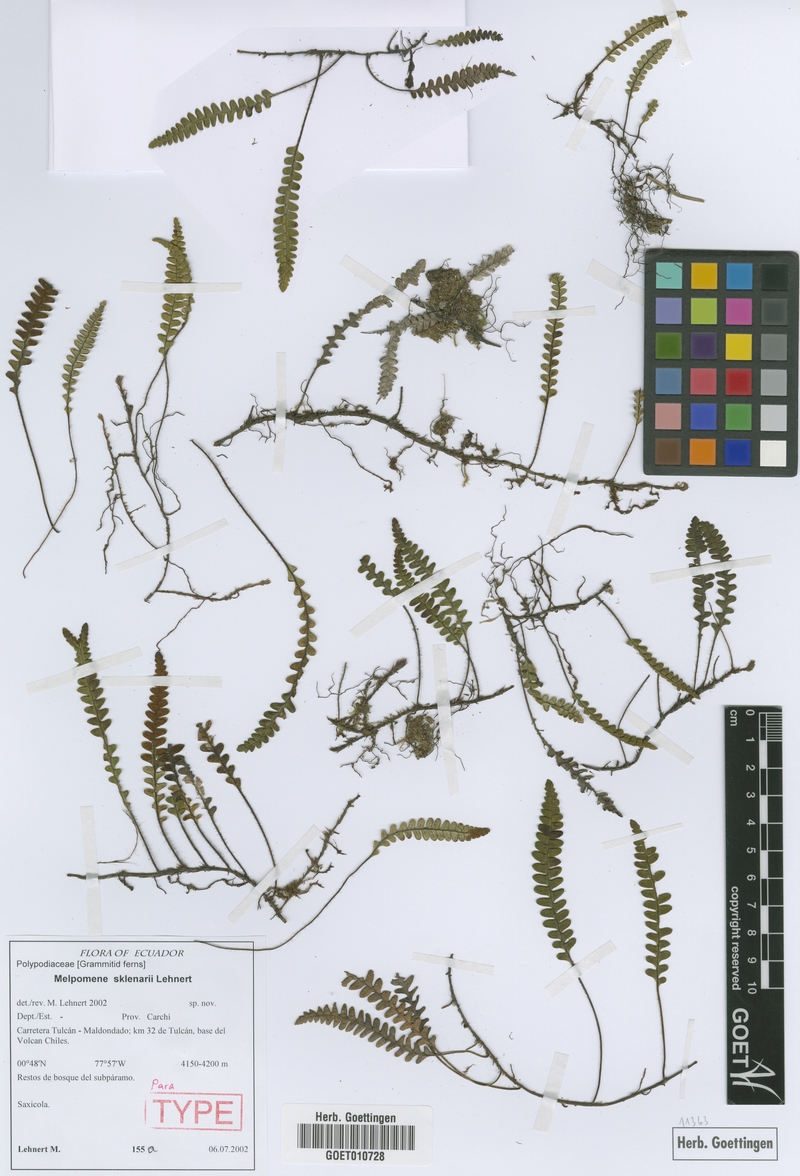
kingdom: Plantae
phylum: Tracheophyta
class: Polypodiopsida
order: Polypodiales
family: Polypodiaceae
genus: Melpomene
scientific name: Melpomene sklenarii
